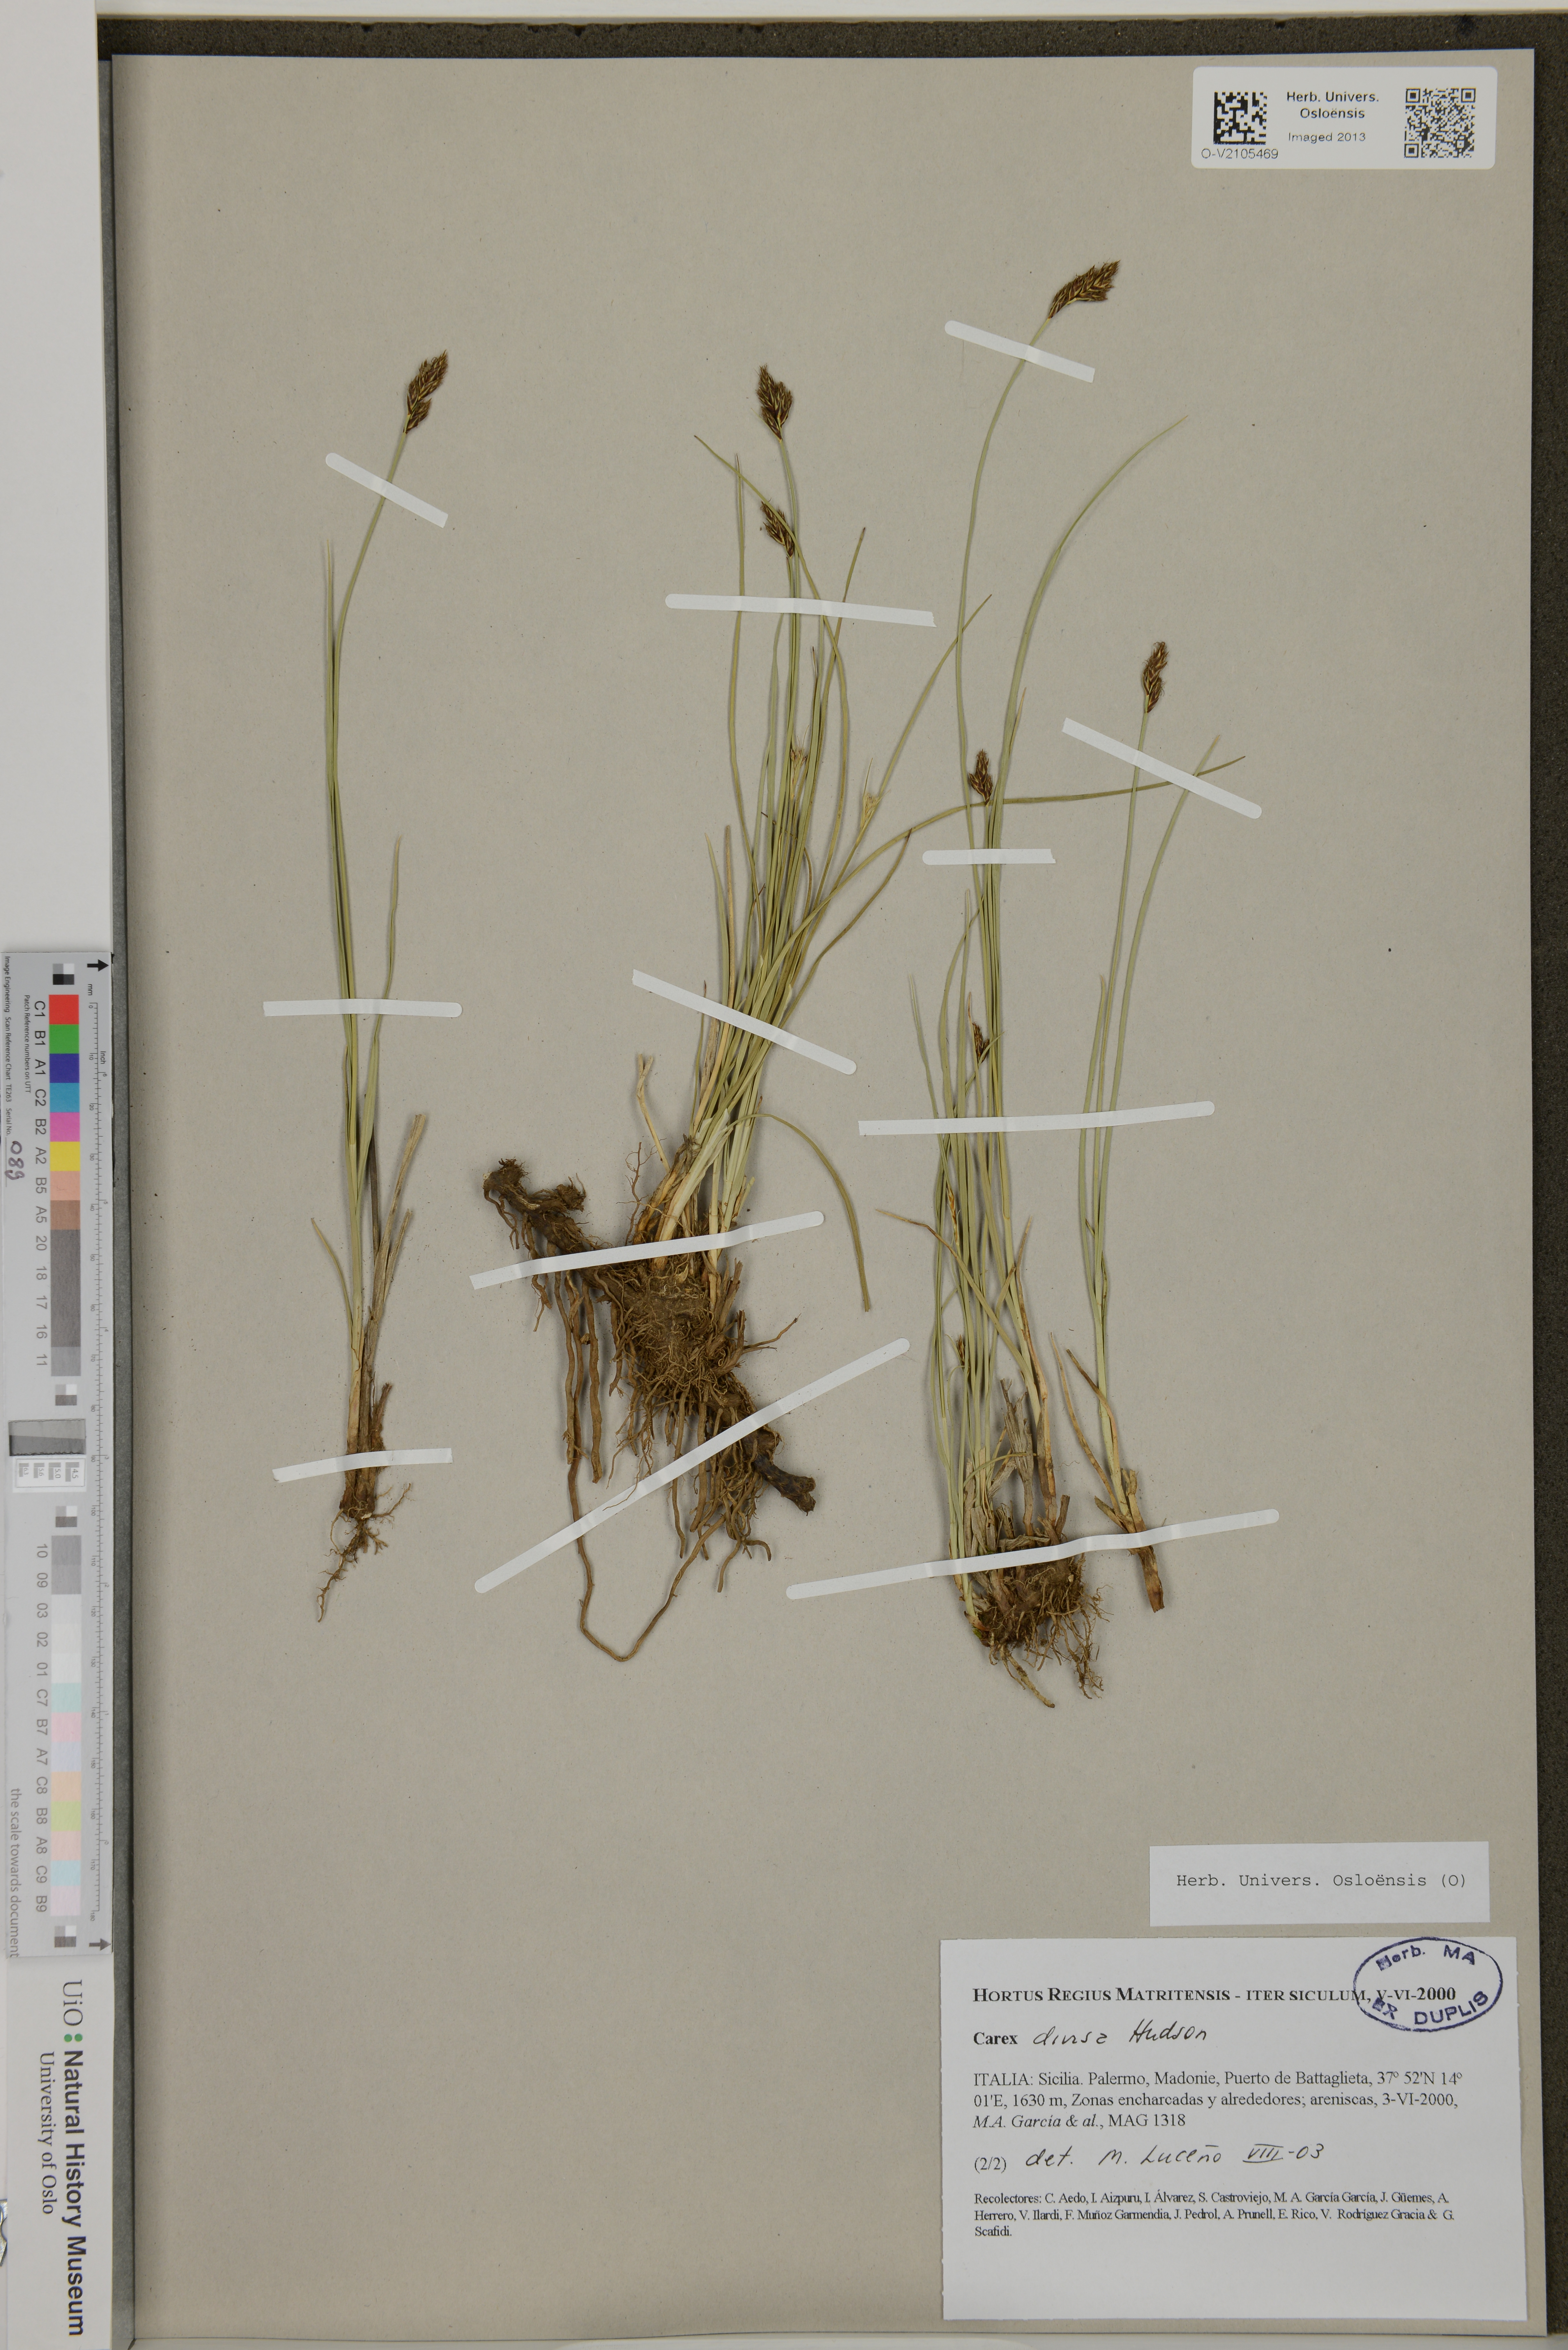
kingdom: Plantae
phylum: Tracheophyta
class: Liliopsida
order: Poales
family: Cyperaceae
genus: Carex
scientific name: Carex divisa
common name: Divided sedge
